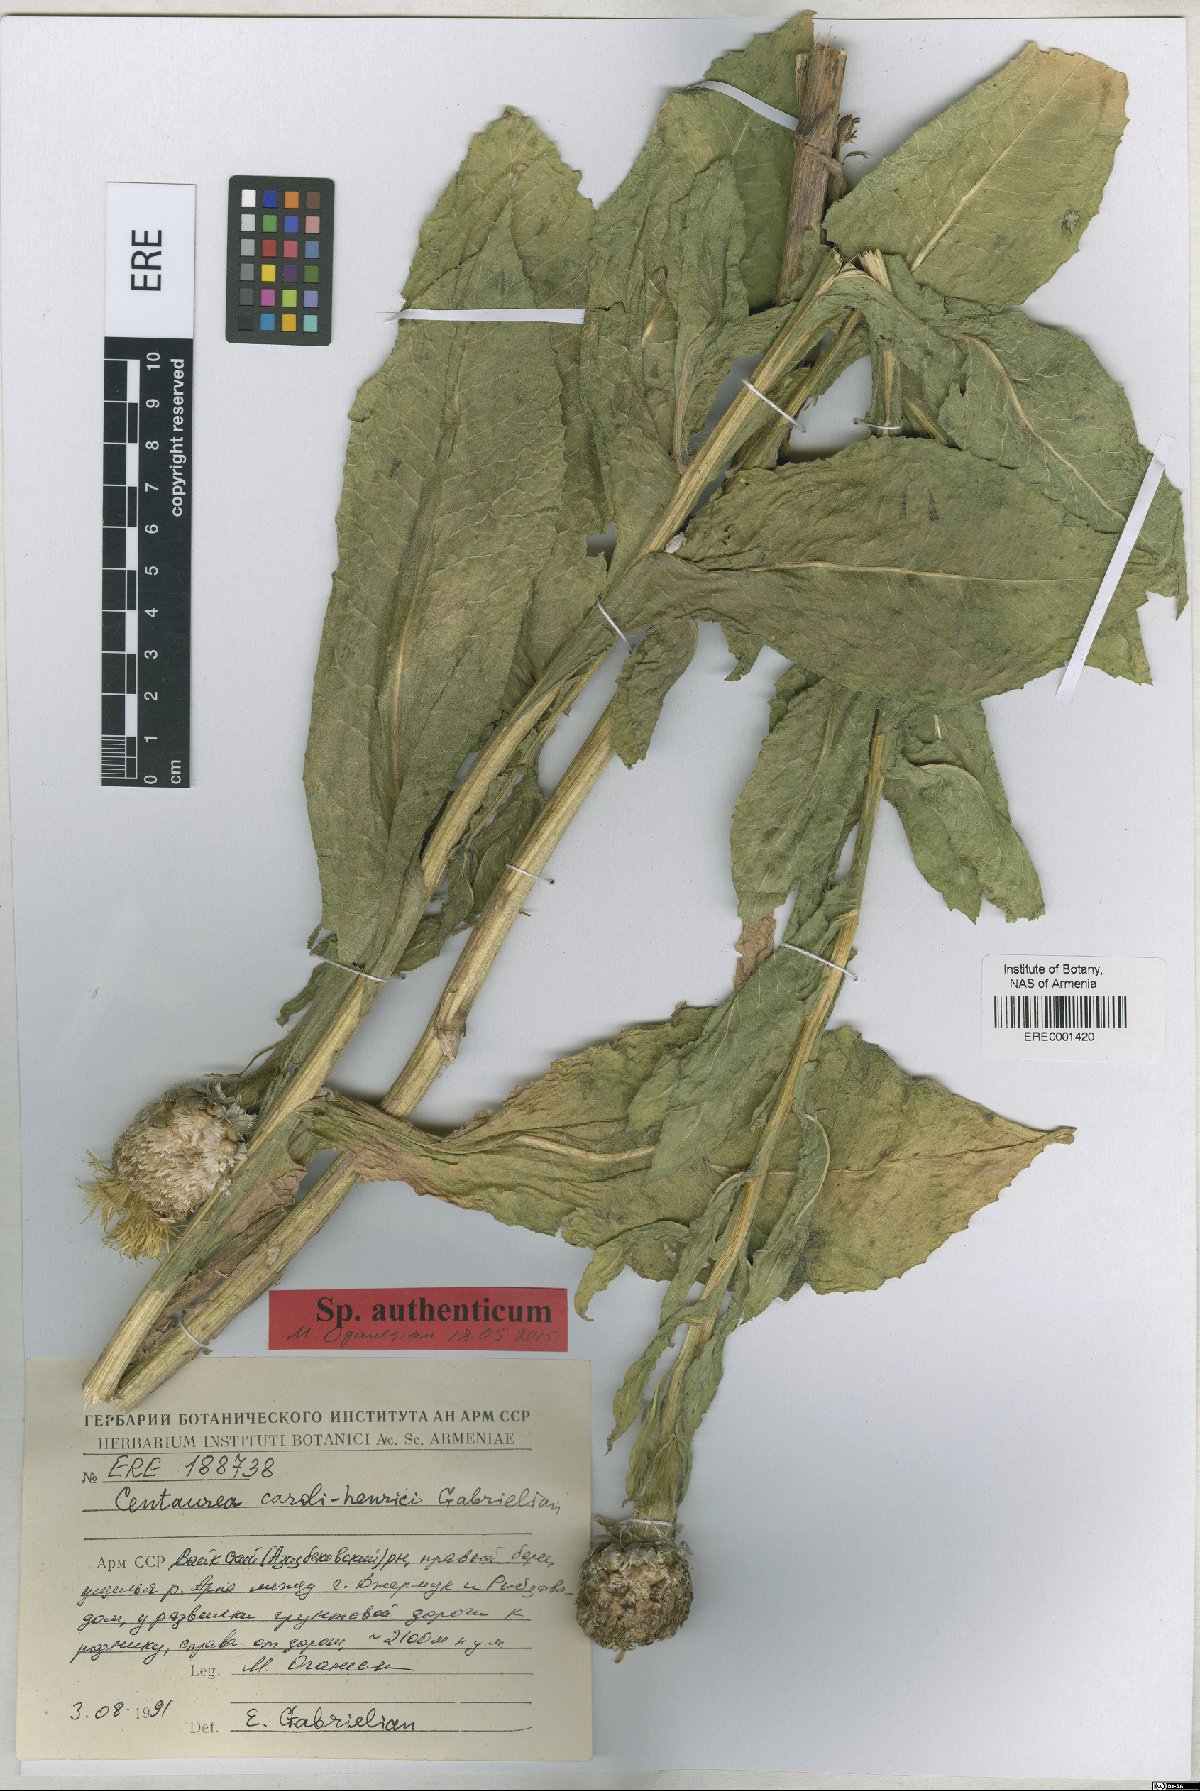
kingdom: Plantae
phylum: Tracheophyta
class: Magnoliopsida
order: Asterales
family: Asteraceae
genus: Centaurea
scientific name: Centaurea caroli-henrici
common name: Karl-henrikh's centaury
